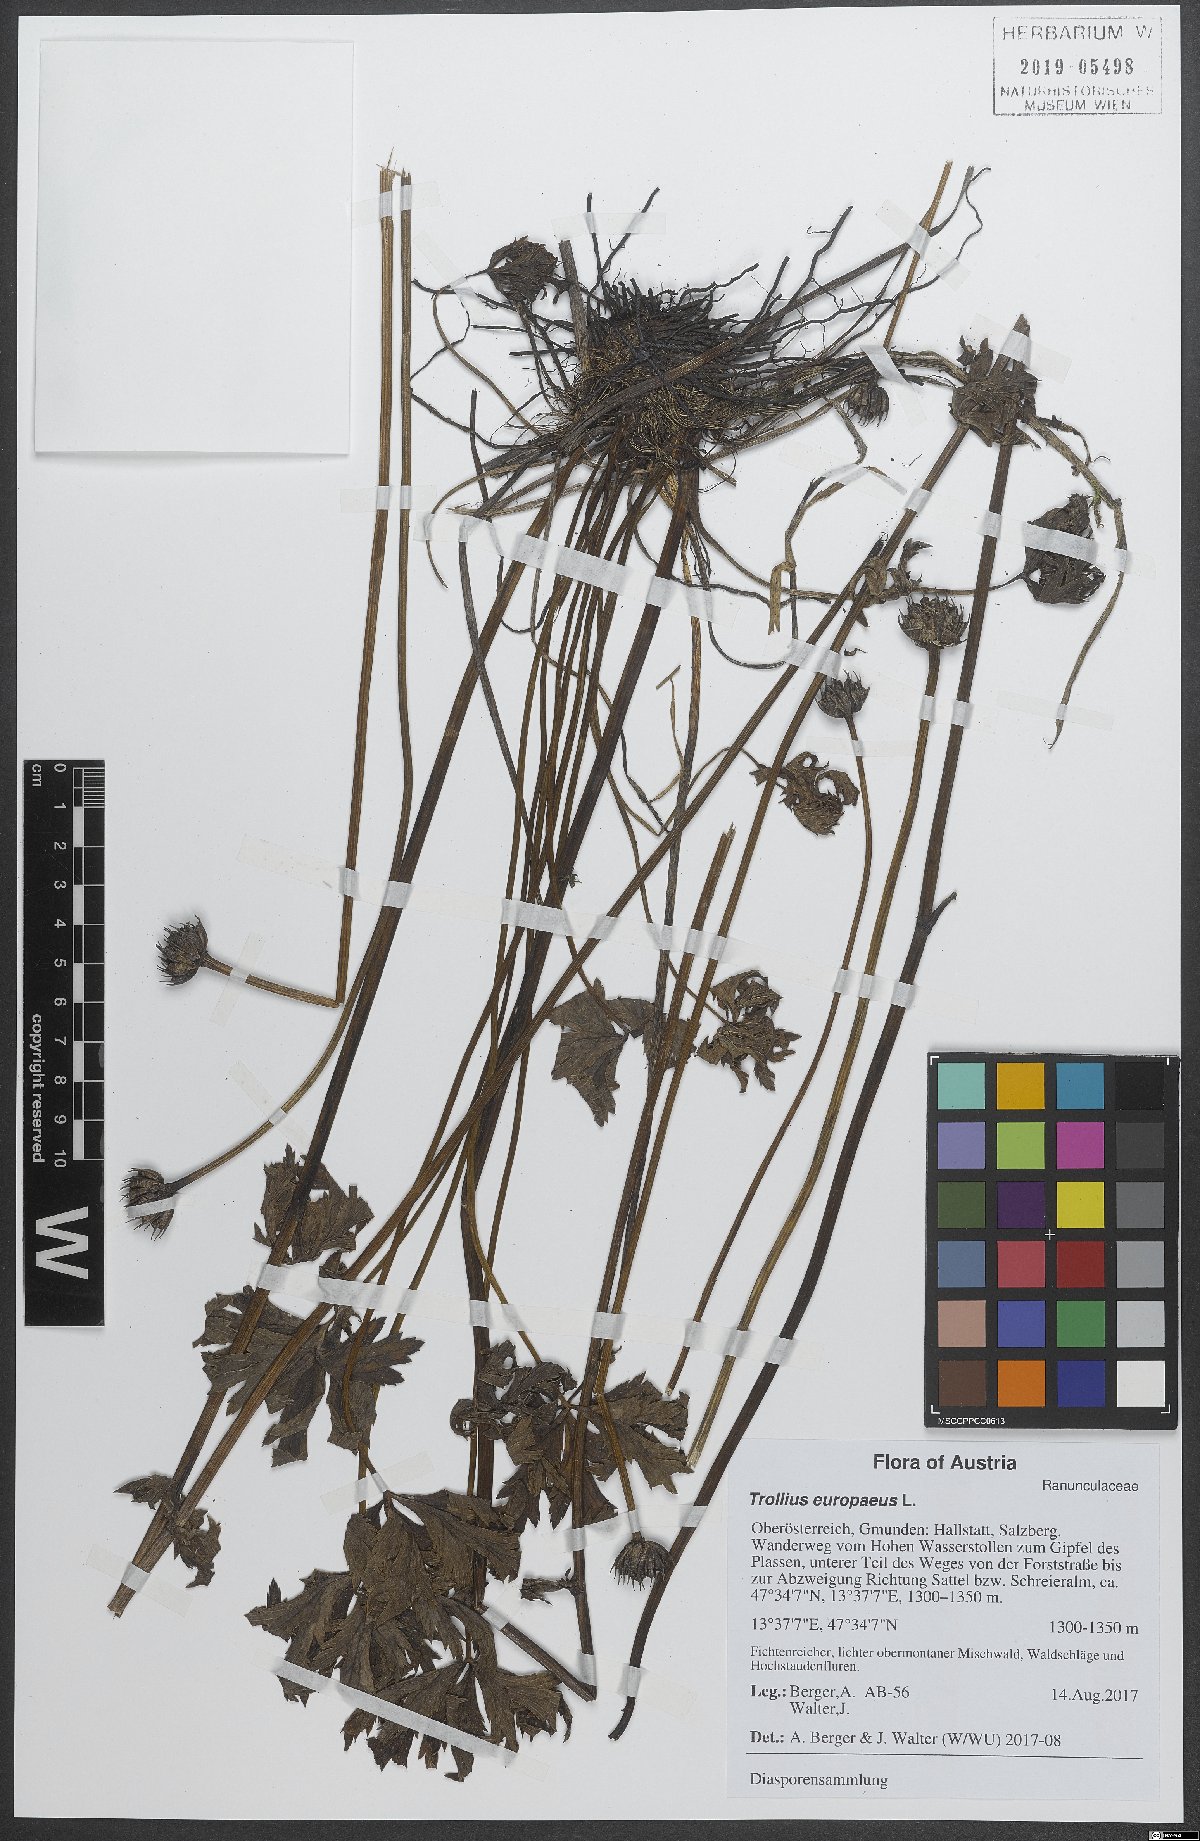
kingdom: Plantae
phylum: Tracheophyta
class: Magnoliopsida
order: Ranunculales
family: Ranunculaceae
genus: Trollius
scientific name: Trollius europaeus
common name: European globeflower
